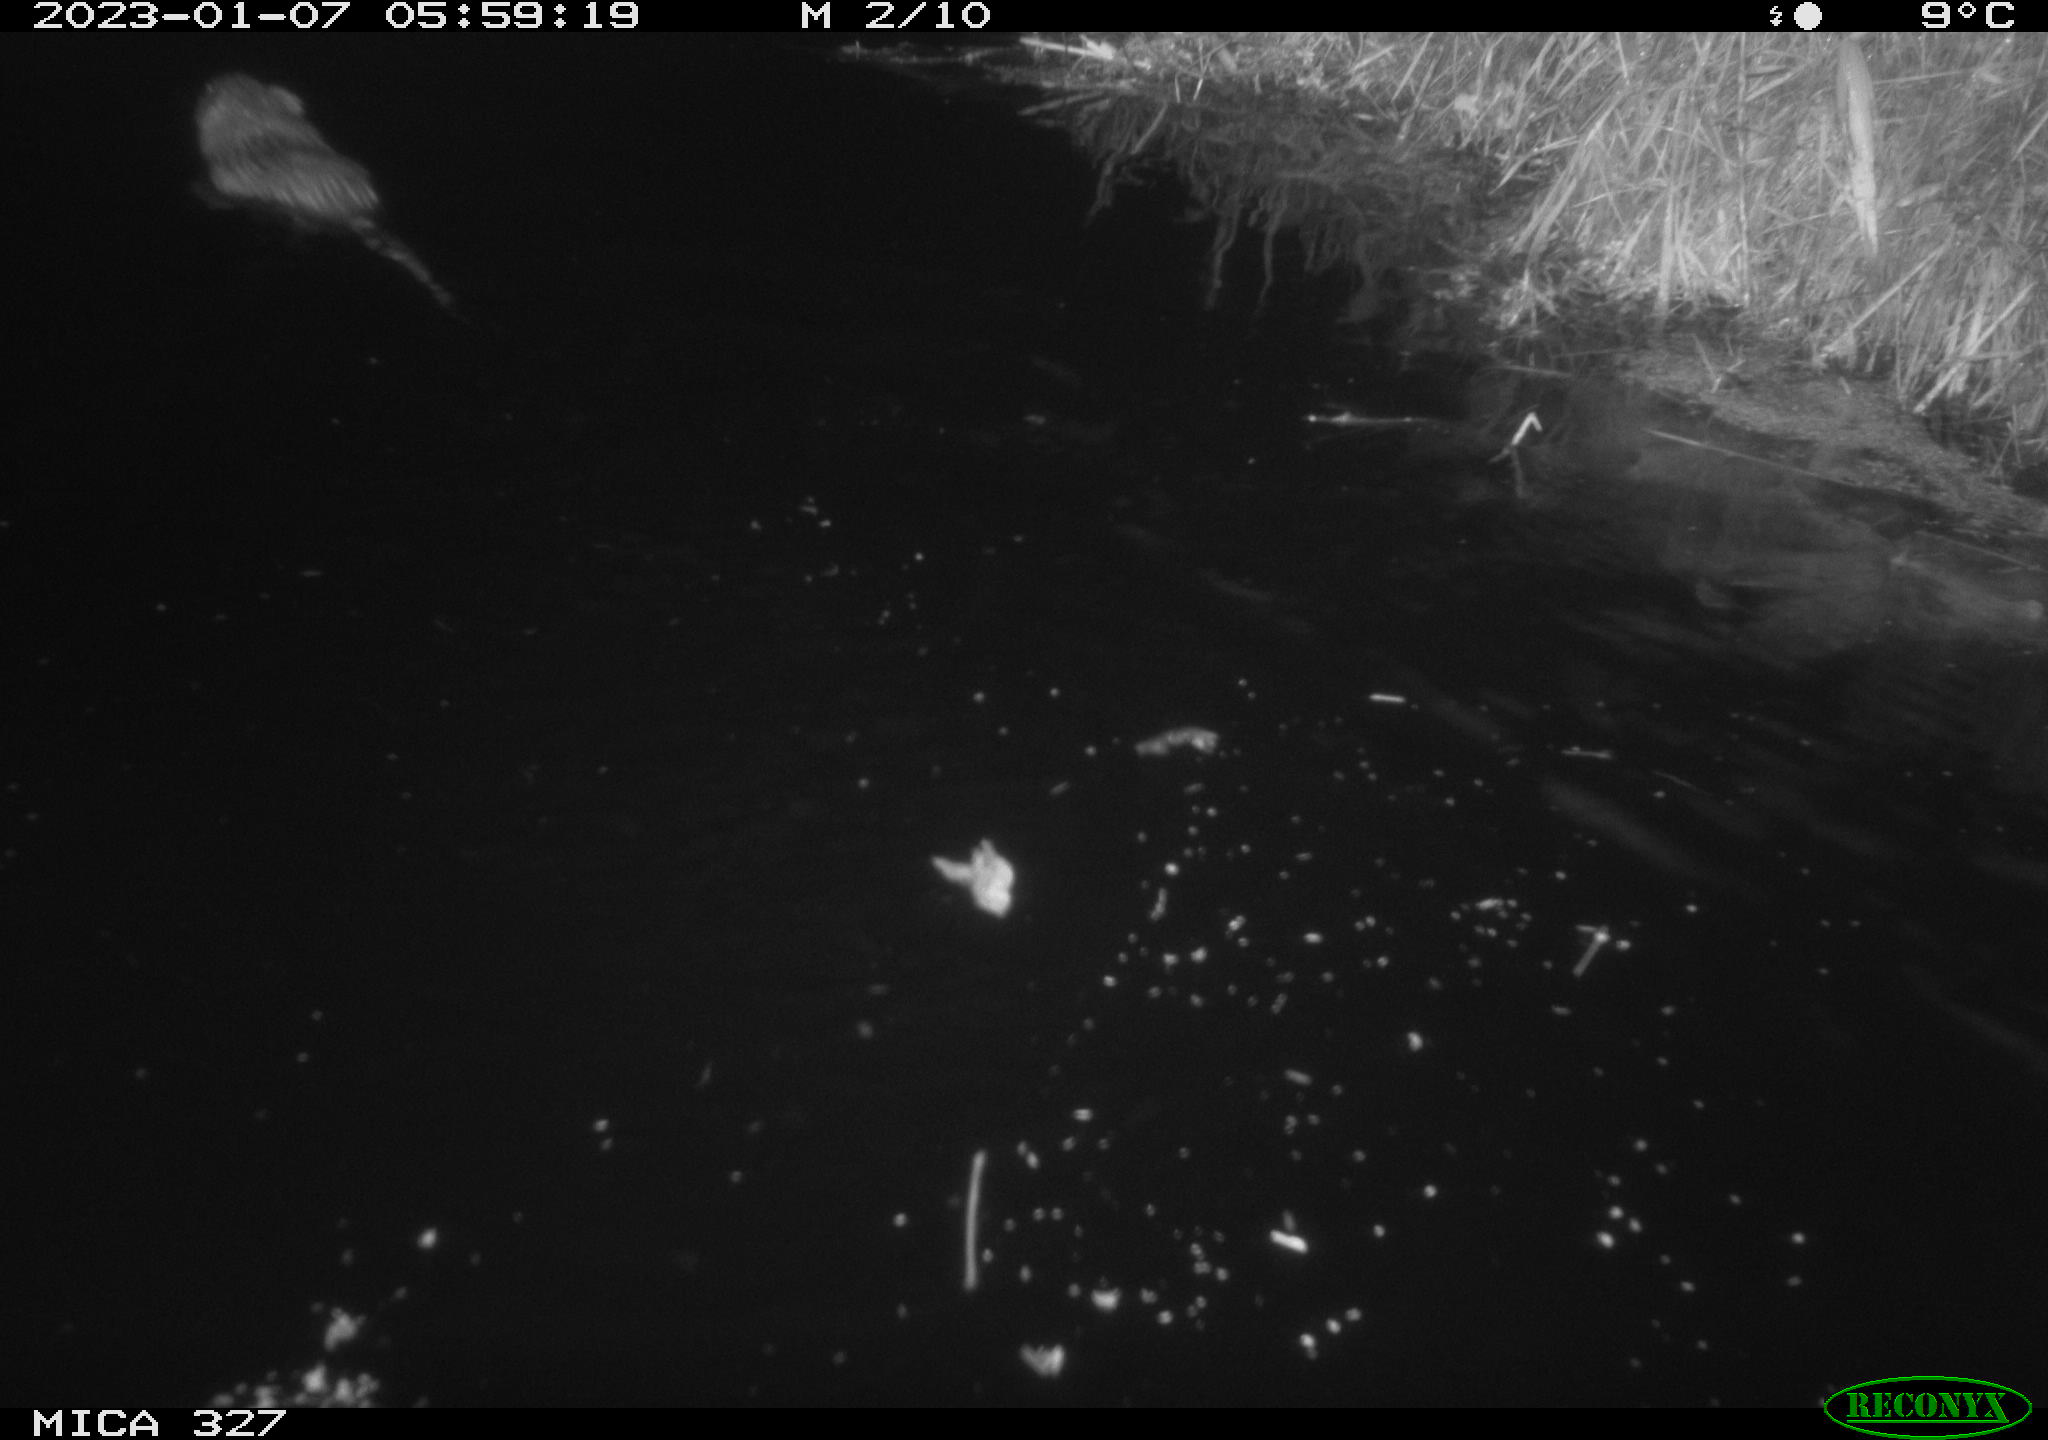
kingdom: Animalia
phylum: Chordata
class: Mammalia
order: Rodentia
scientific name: Rodentia
